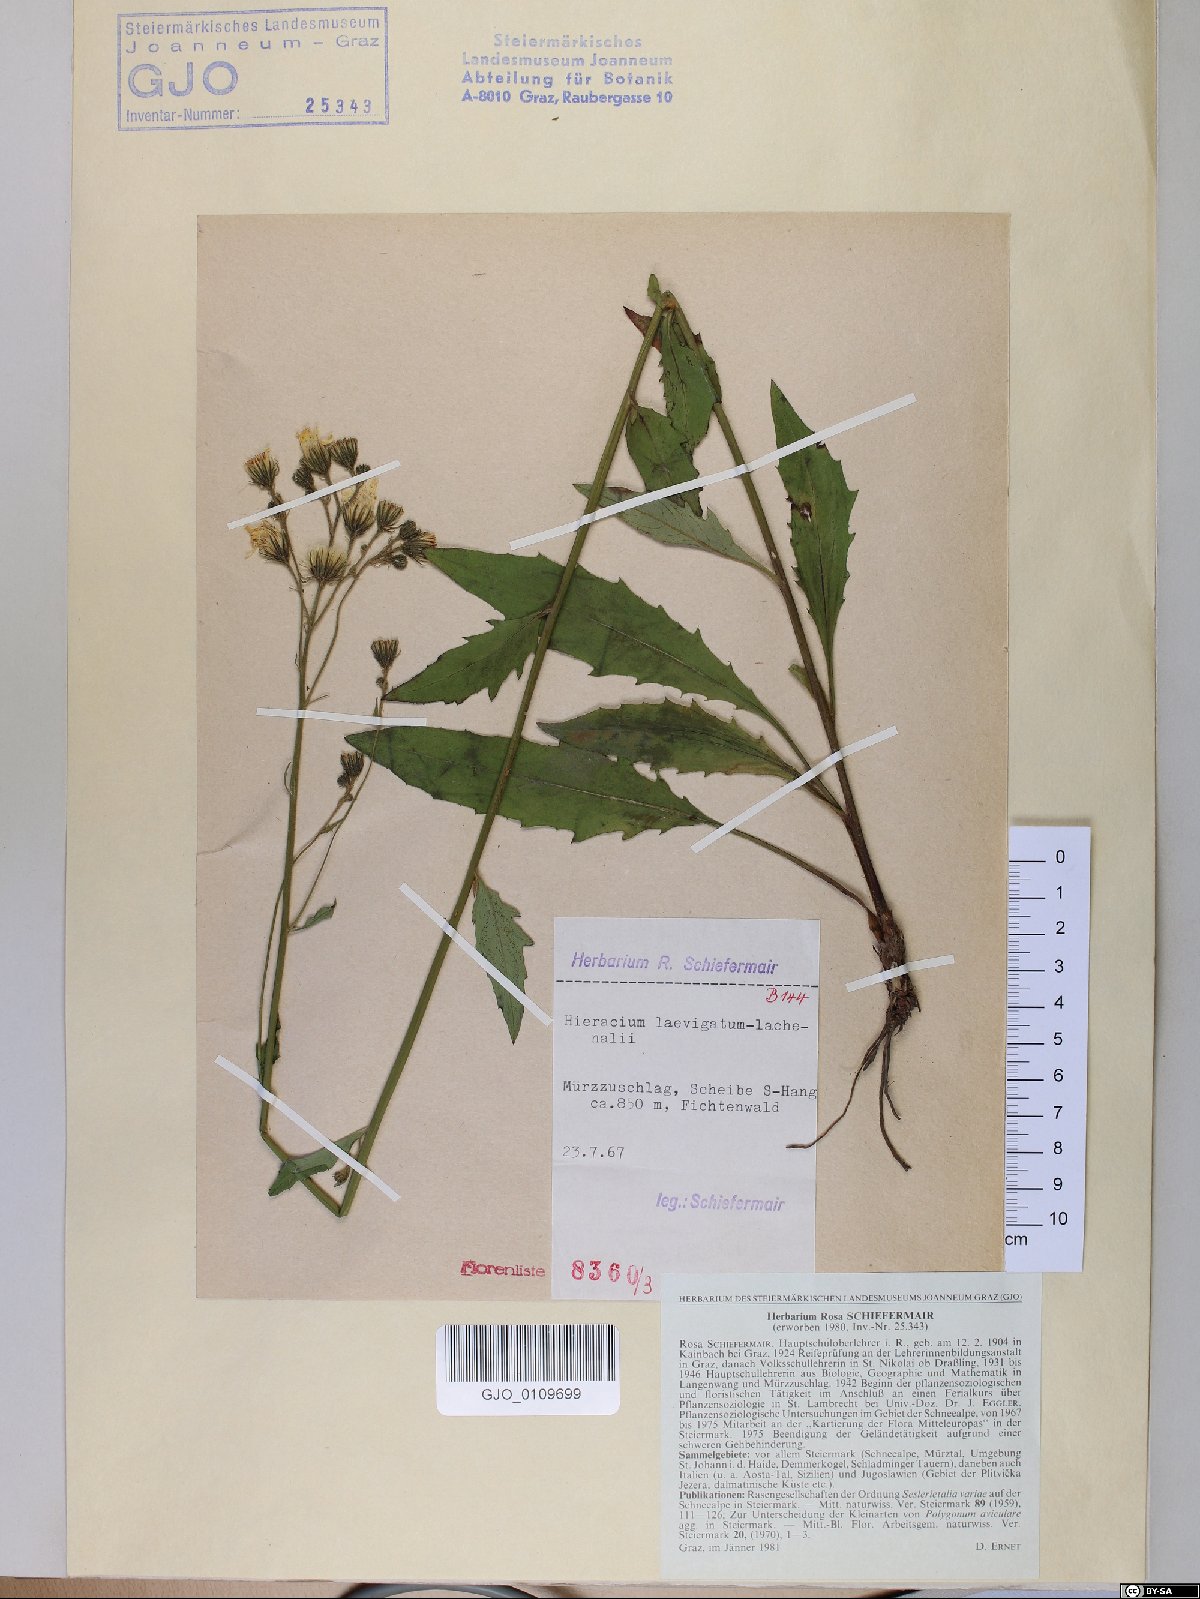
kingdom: Plantae
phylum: Tracheophyta
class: Magnoliopsida
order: Asterales
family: Asteraceae
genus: Hieracium
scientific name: Hieracium laevigatum
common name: Smooth hawkweed
